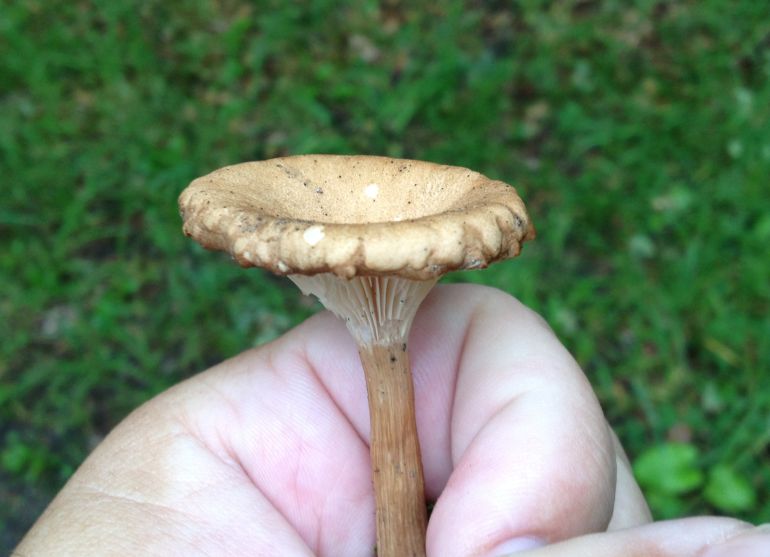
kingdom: Fungi
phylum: Basidiomycota
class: Agaricomycetes
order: Agaricales
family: Tricholomataceae
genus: Infundibulicybe
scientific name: Infundibulicybe squamulosa
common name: småskællet tragthat
